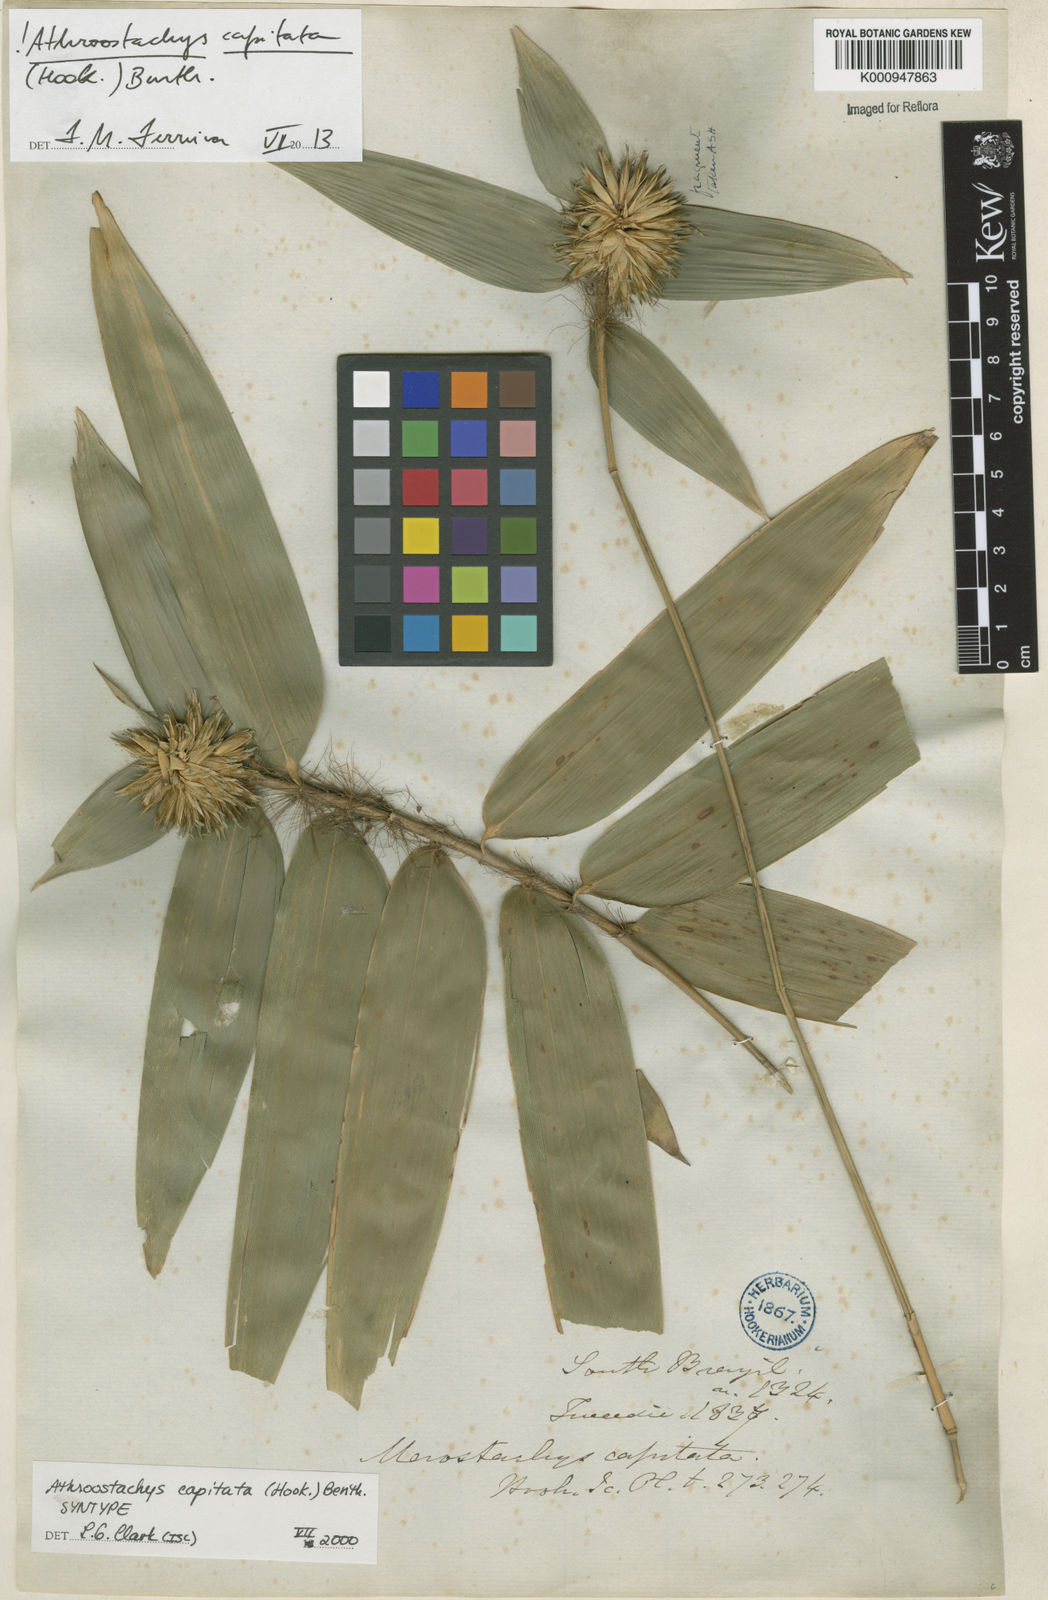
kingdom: Plantae
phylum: Tracheophyta
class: Liliopsida
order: Poales
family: Poaceae
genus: Athroostachys
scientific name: Athroostachys capitata
